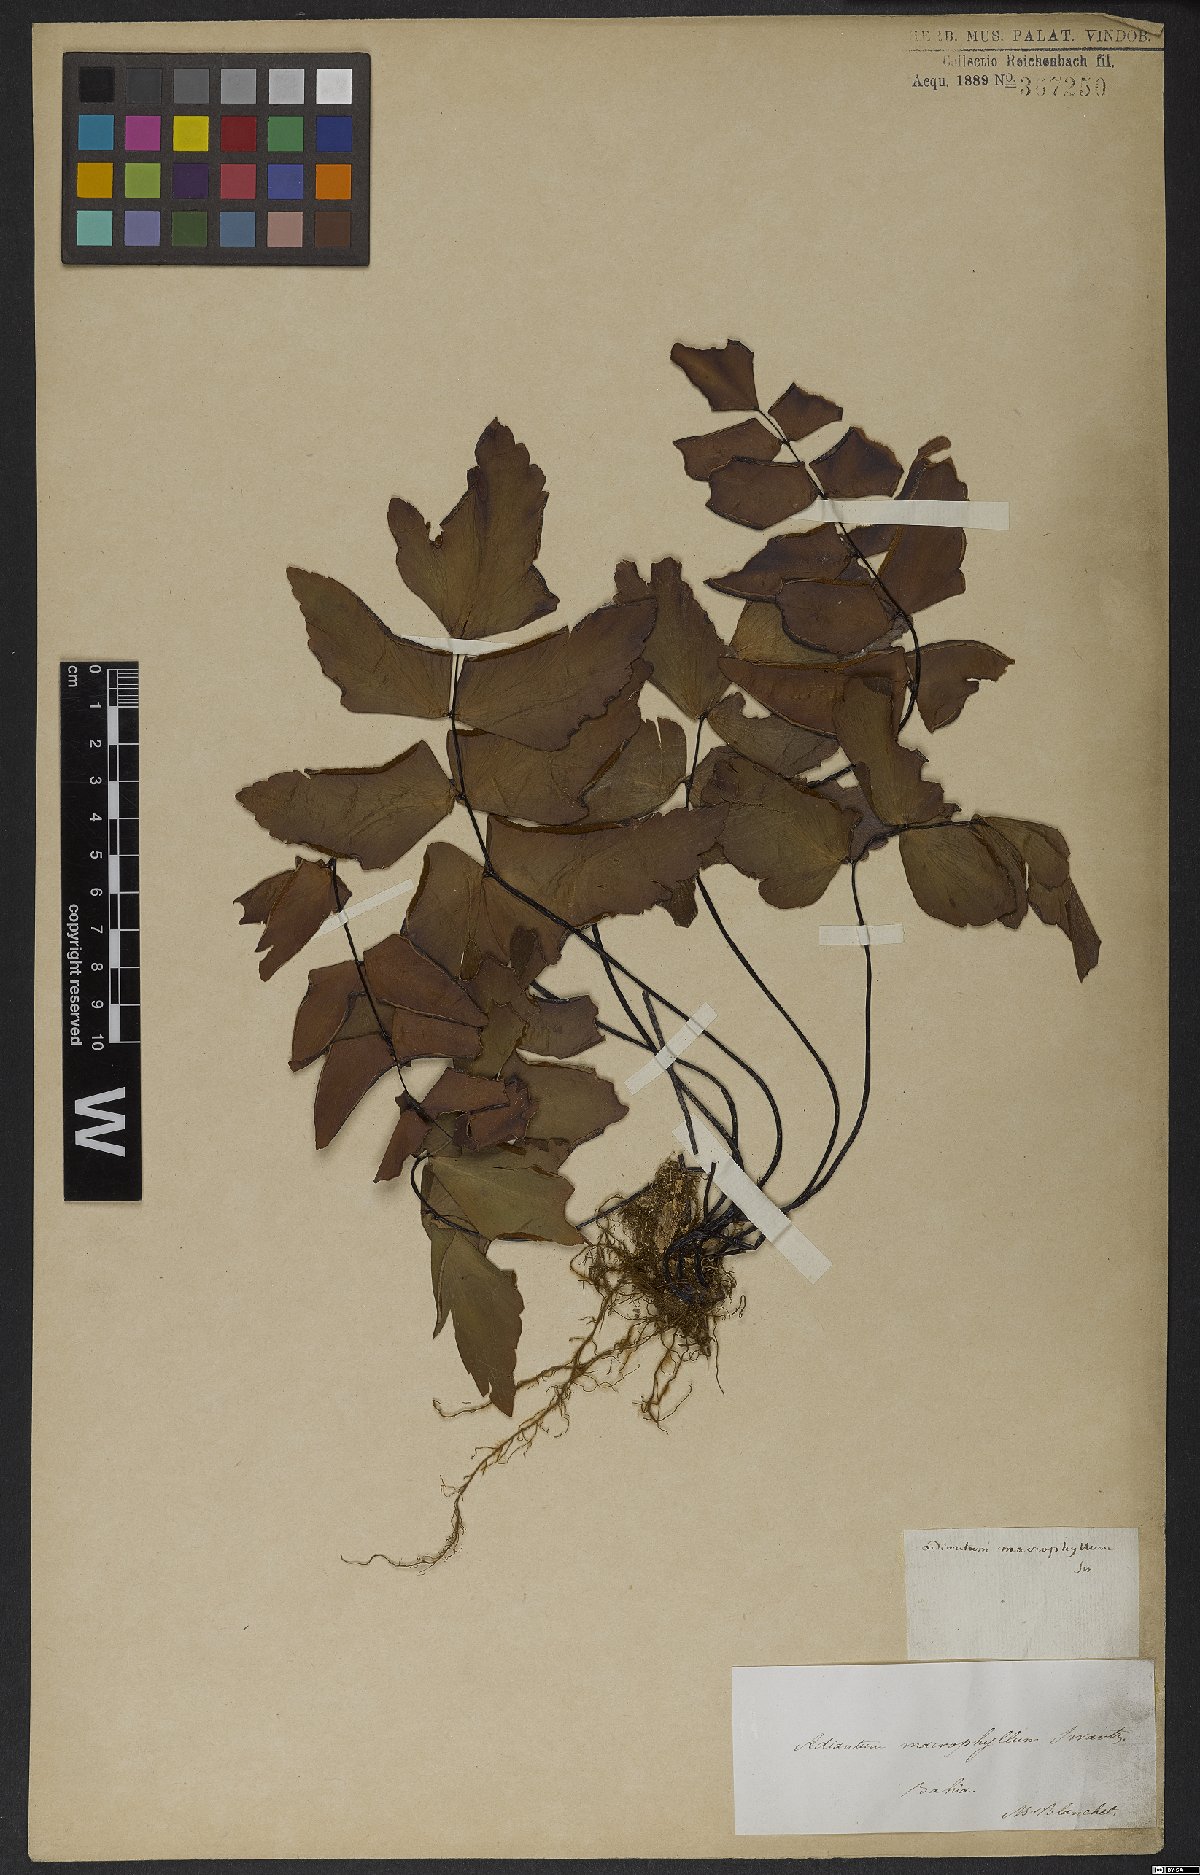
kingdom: Plantae
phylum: Tracheophyta
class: Polypodiopsida
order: Polypodiales
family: Pteridaceae
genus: Adiantum
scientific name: Adiantum macrophyllum
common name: Largeleaf maidenhair
